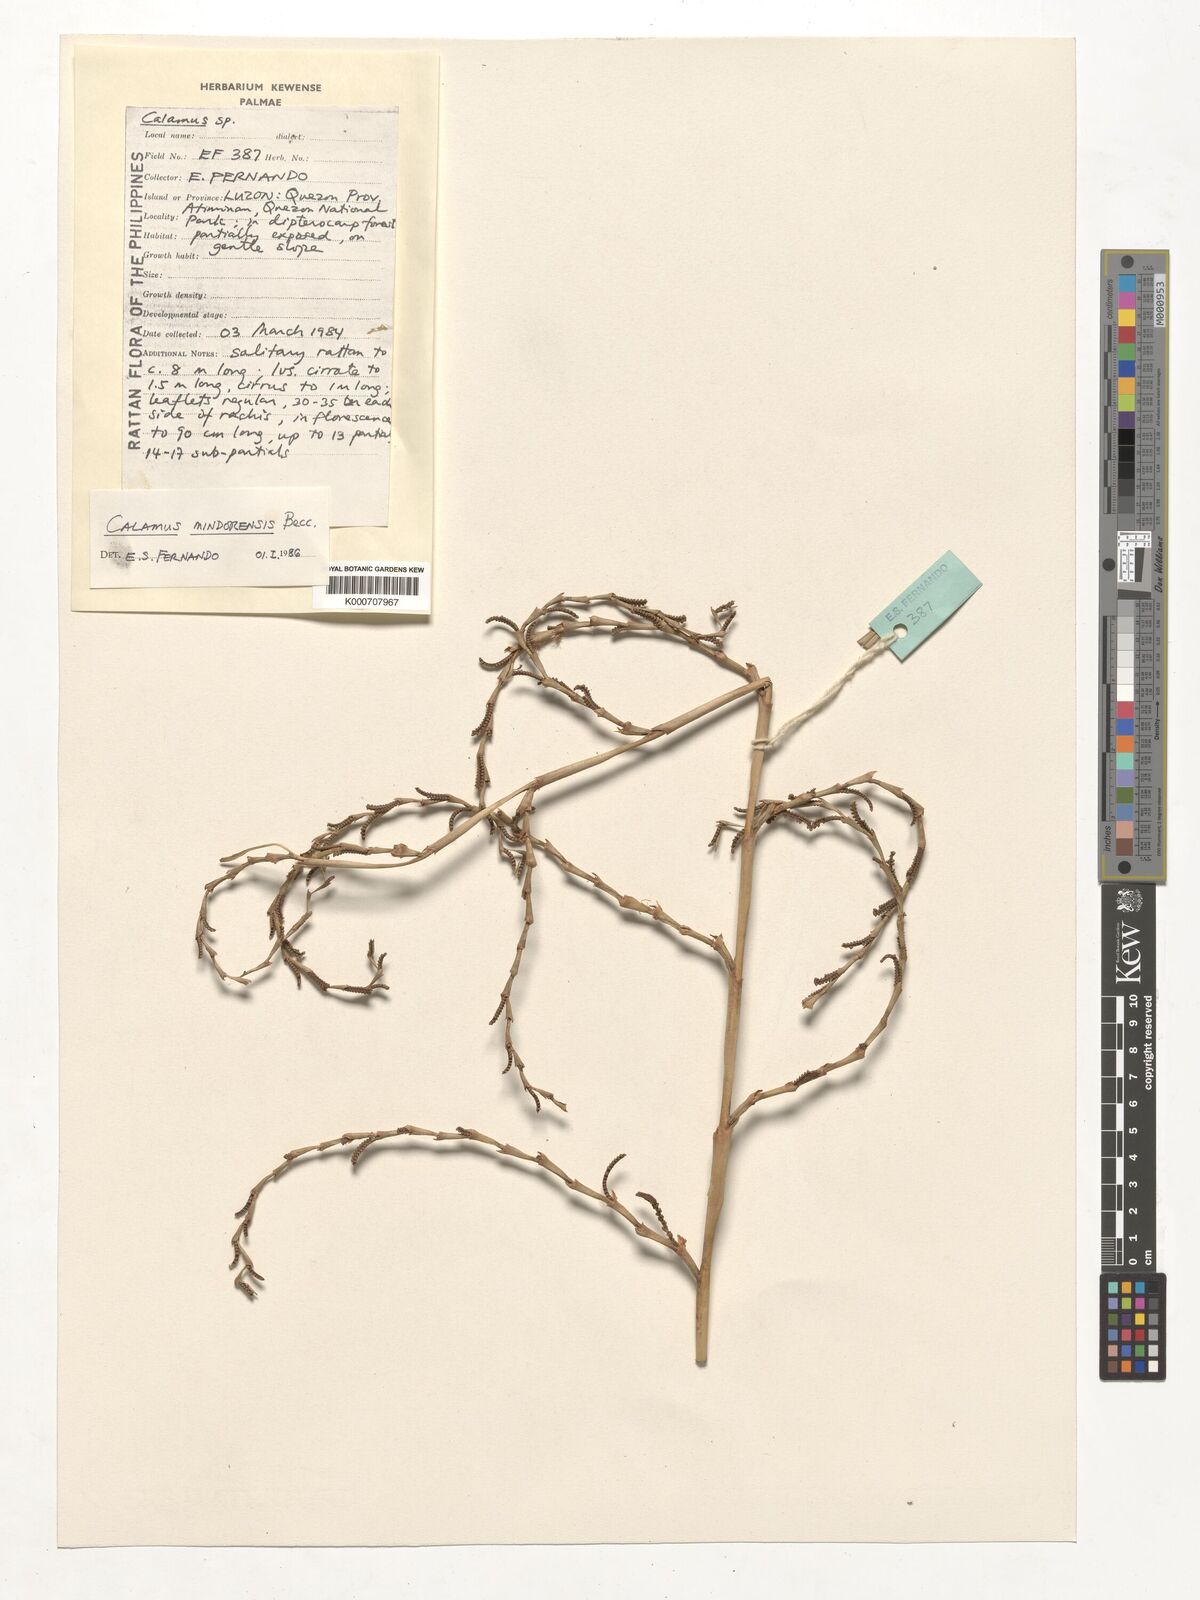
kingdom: Plantae
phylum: Tracheophyta
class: Liliopsida
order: Arecales
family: Arecaceae
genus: Calamus
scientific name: Calamus moseleyanus
